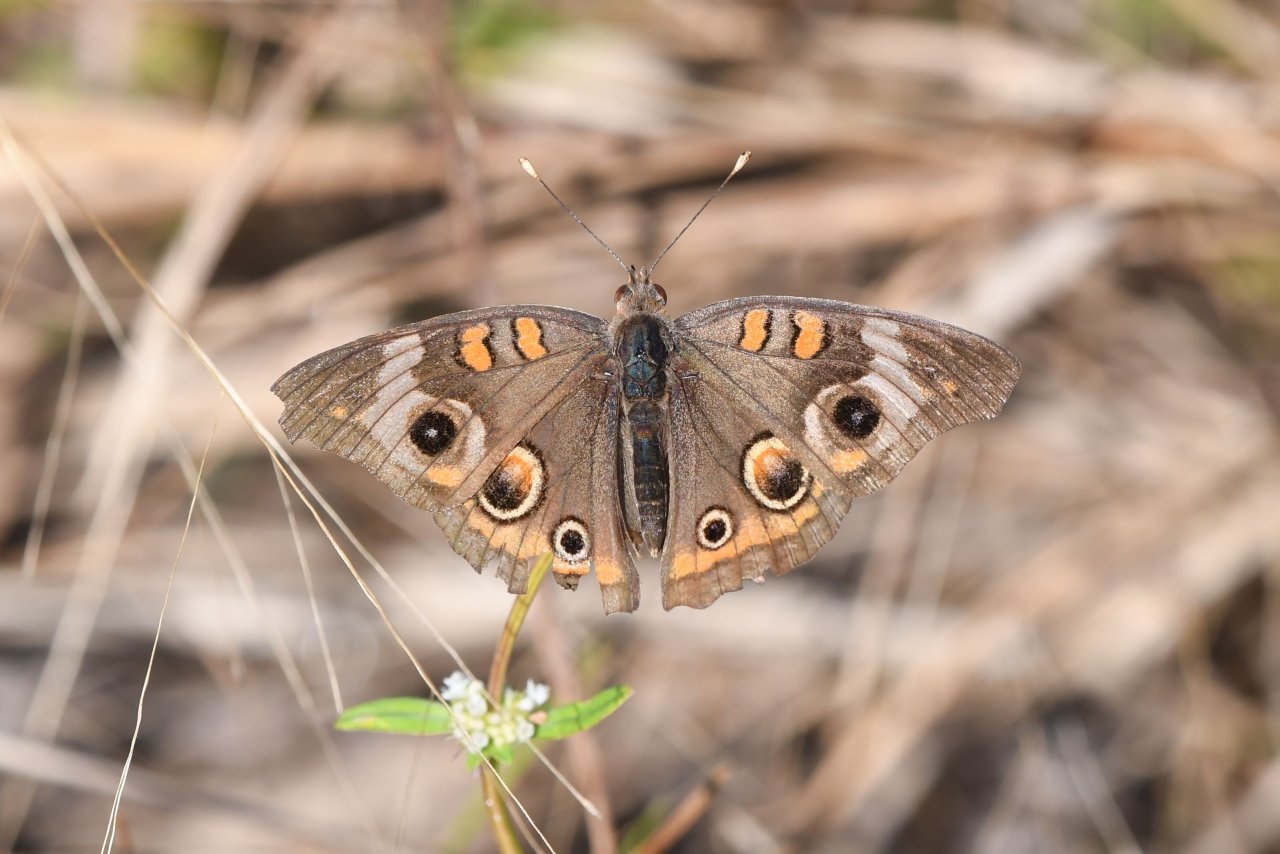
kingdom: Animalia
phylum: Arthropoda
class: Insecta
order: Lepidoptera
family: Nymphalidae
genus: Junonia
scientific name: Junonia coenia
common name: Common Buckeye
